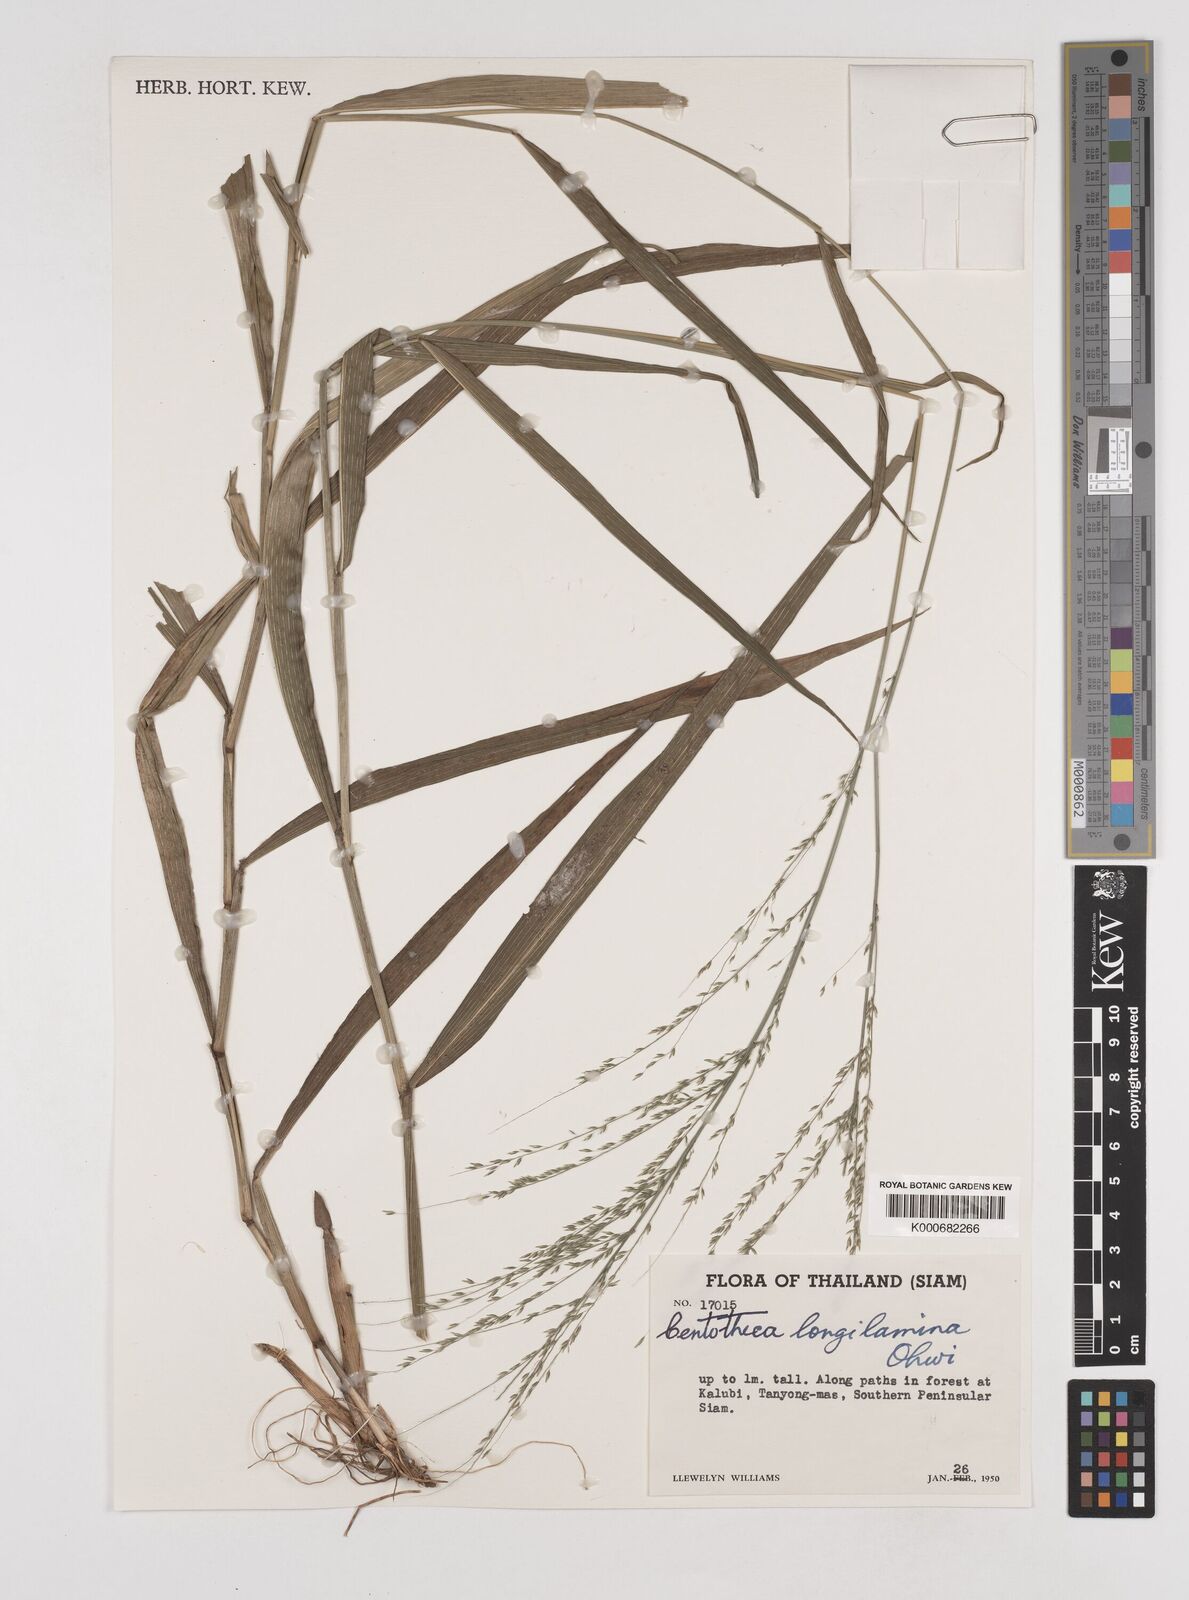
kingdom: Plantae
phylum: Tracheophyta
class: Liliopsida
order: Poales
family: Poaceae
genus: Centotheca
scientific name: Centotheca lappacea
